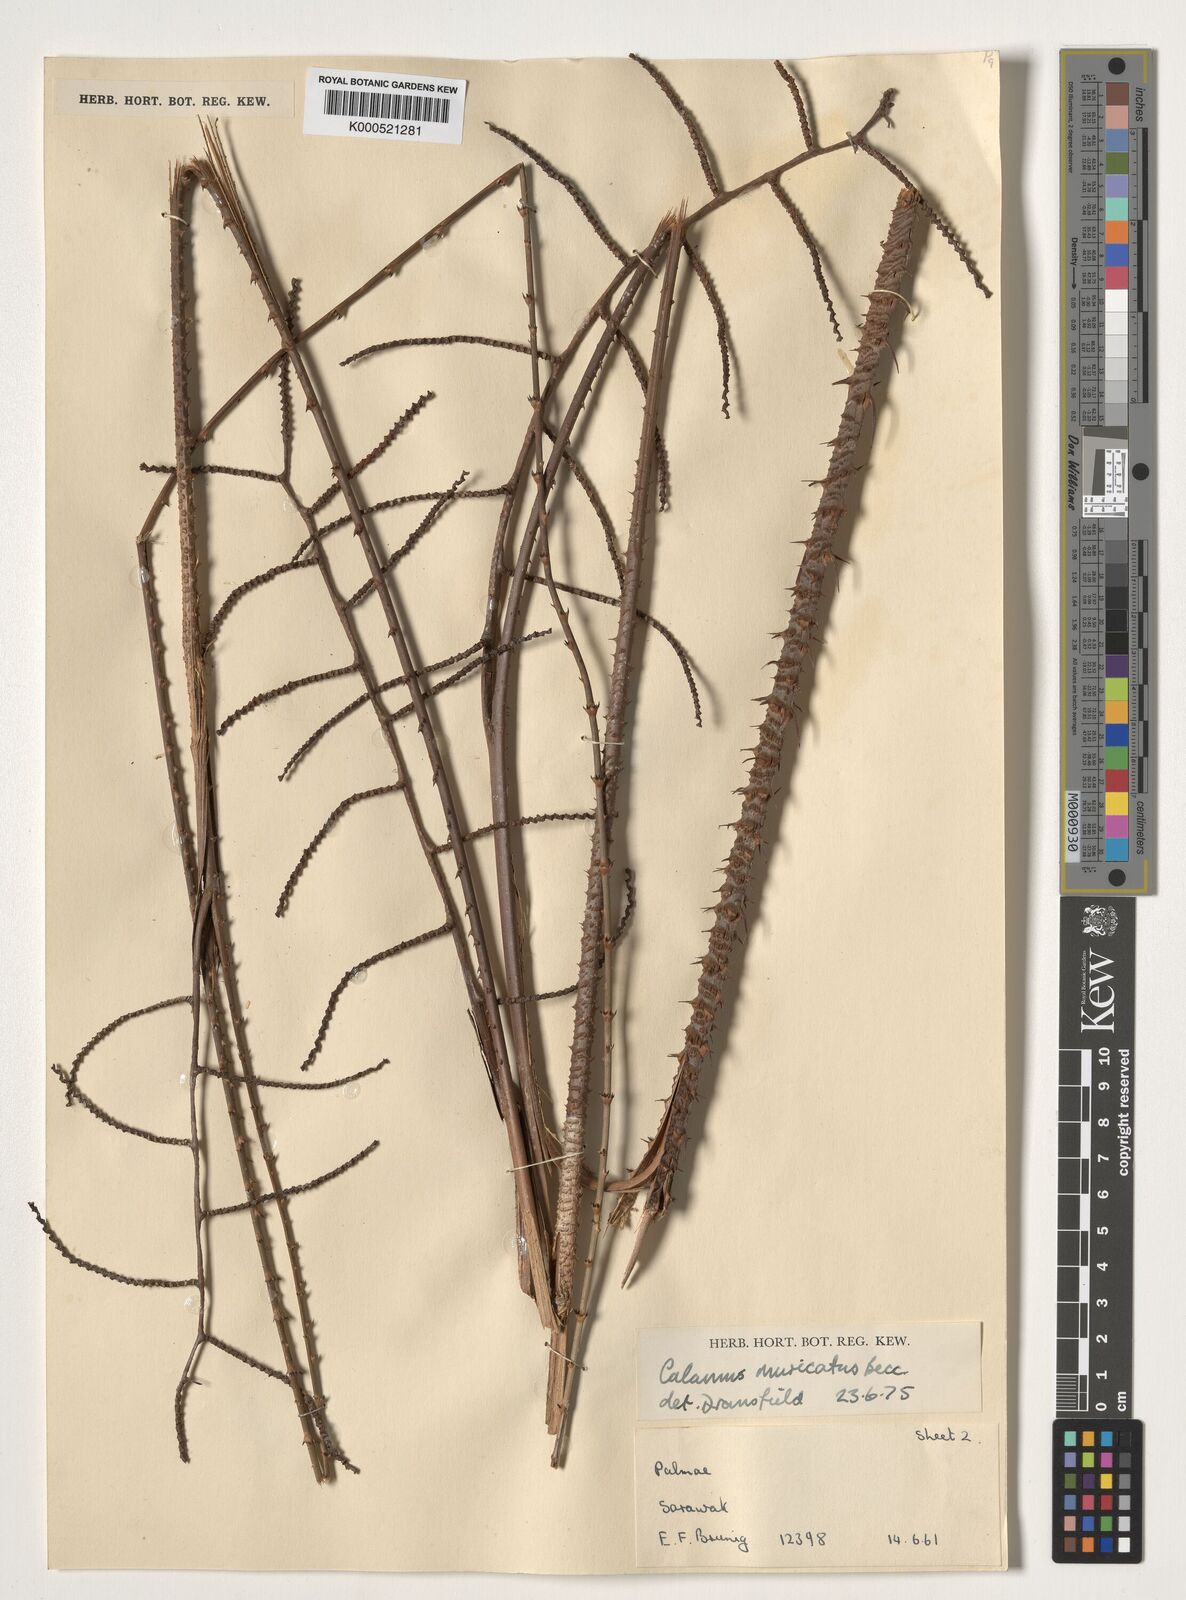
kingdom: Plantae
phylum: Tracheophyta
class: Liliopsida
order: Arecales
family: Arecaceae
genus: Calamus
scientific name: Calamus muricatus
